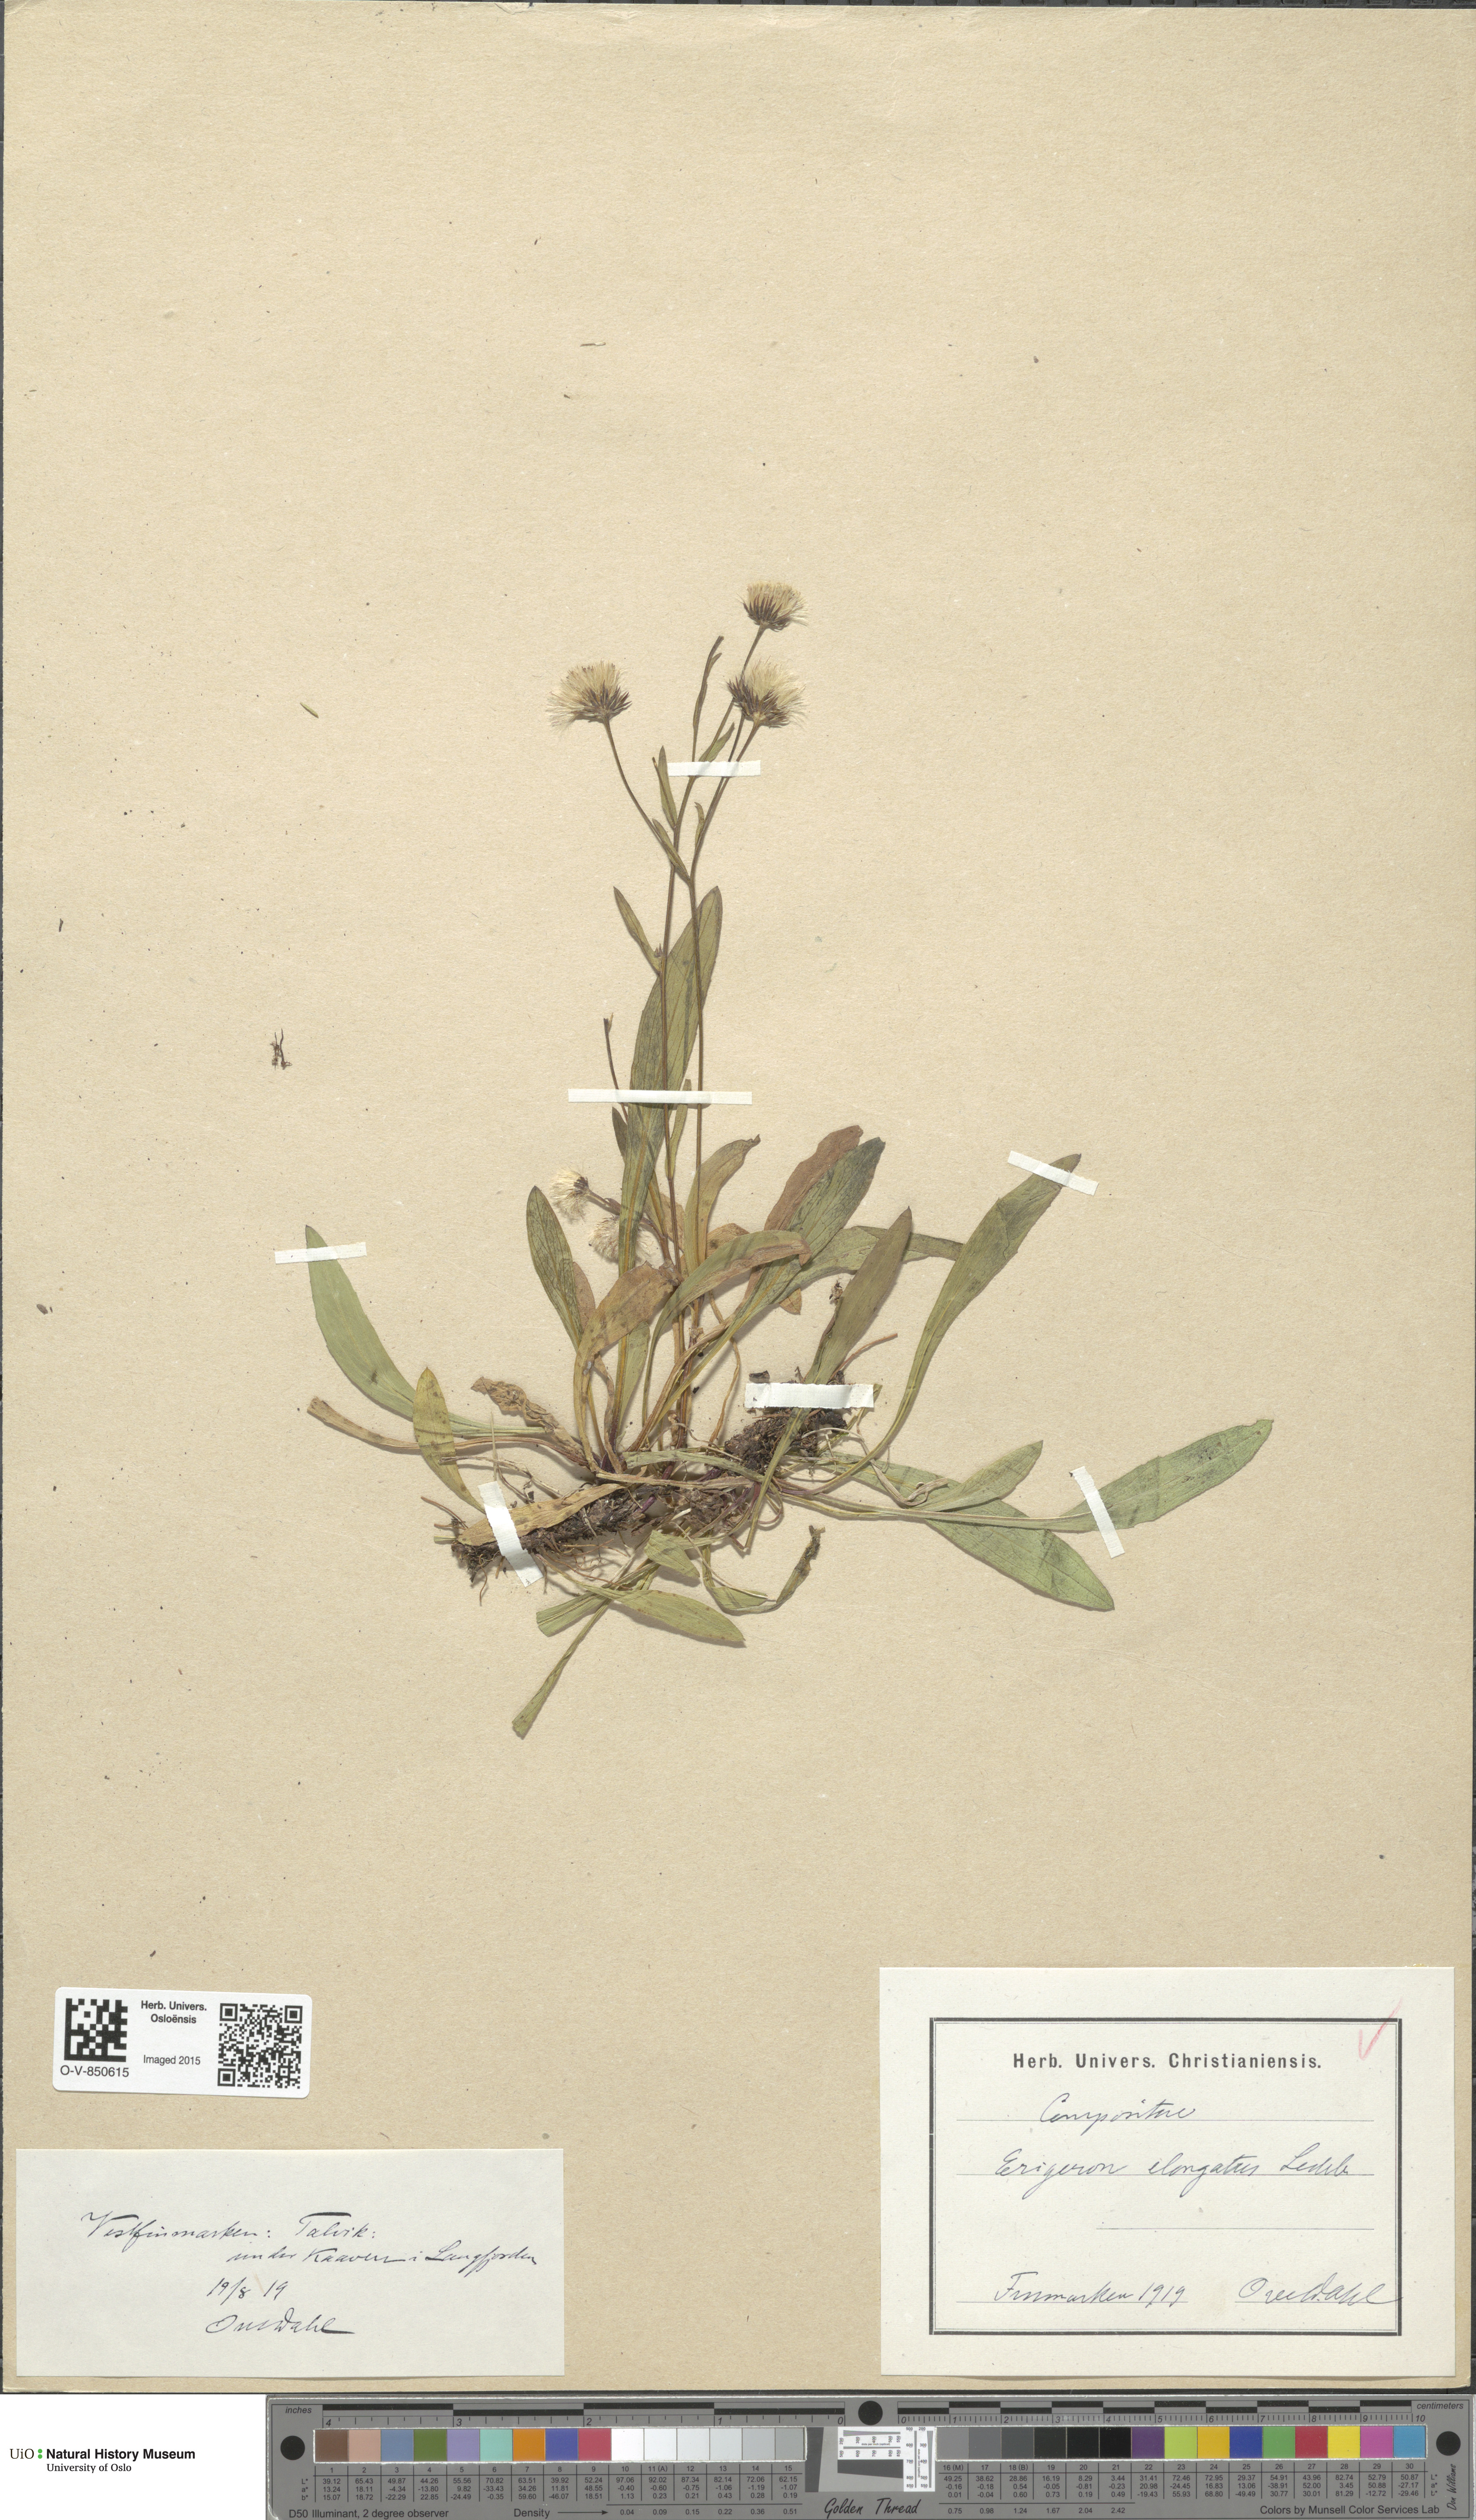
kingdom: Plantae
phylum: Tracheophyta
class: Magnoliopsida
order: Asterales
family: Asteraceae
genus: Erigeron
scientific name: Erigeron politus
